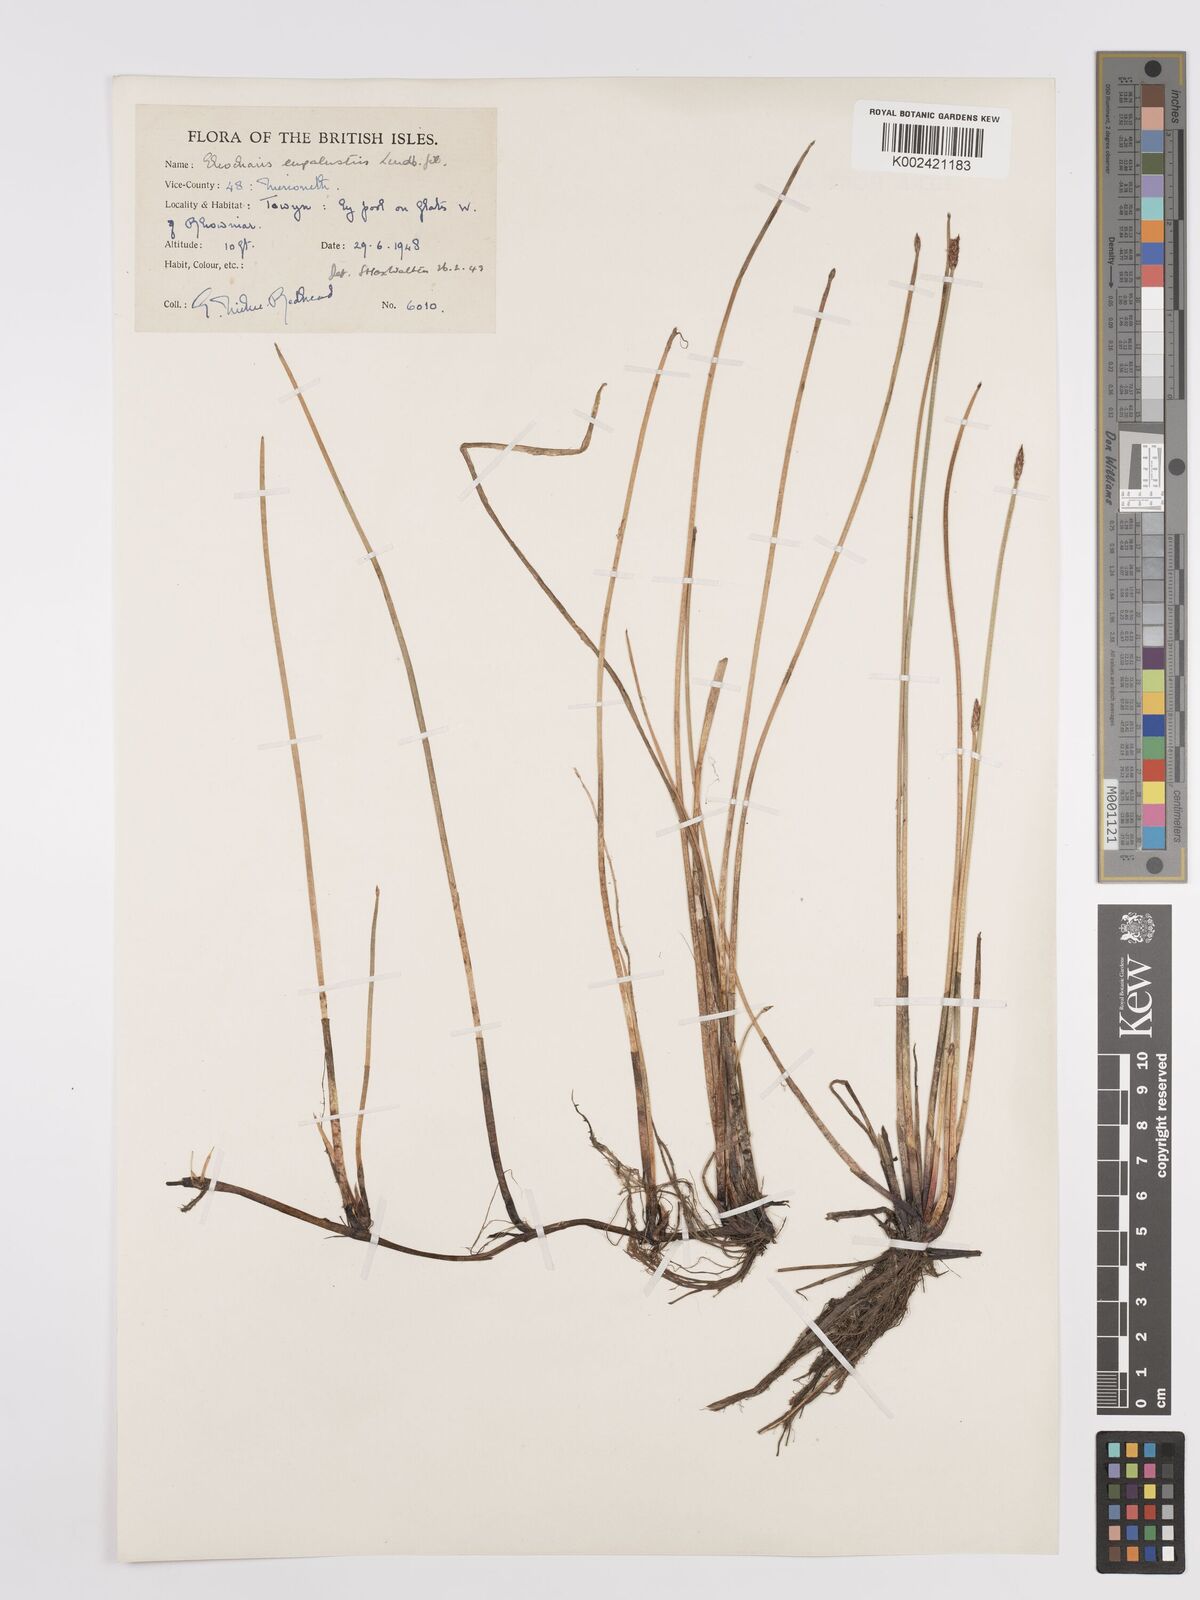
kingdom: Plantae
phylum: Tracheophyta
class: Liliopsida
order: Poales
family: Cyperaceae
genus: Eleocharis
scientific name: Eleocharis palustris
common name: Common spike-rush
